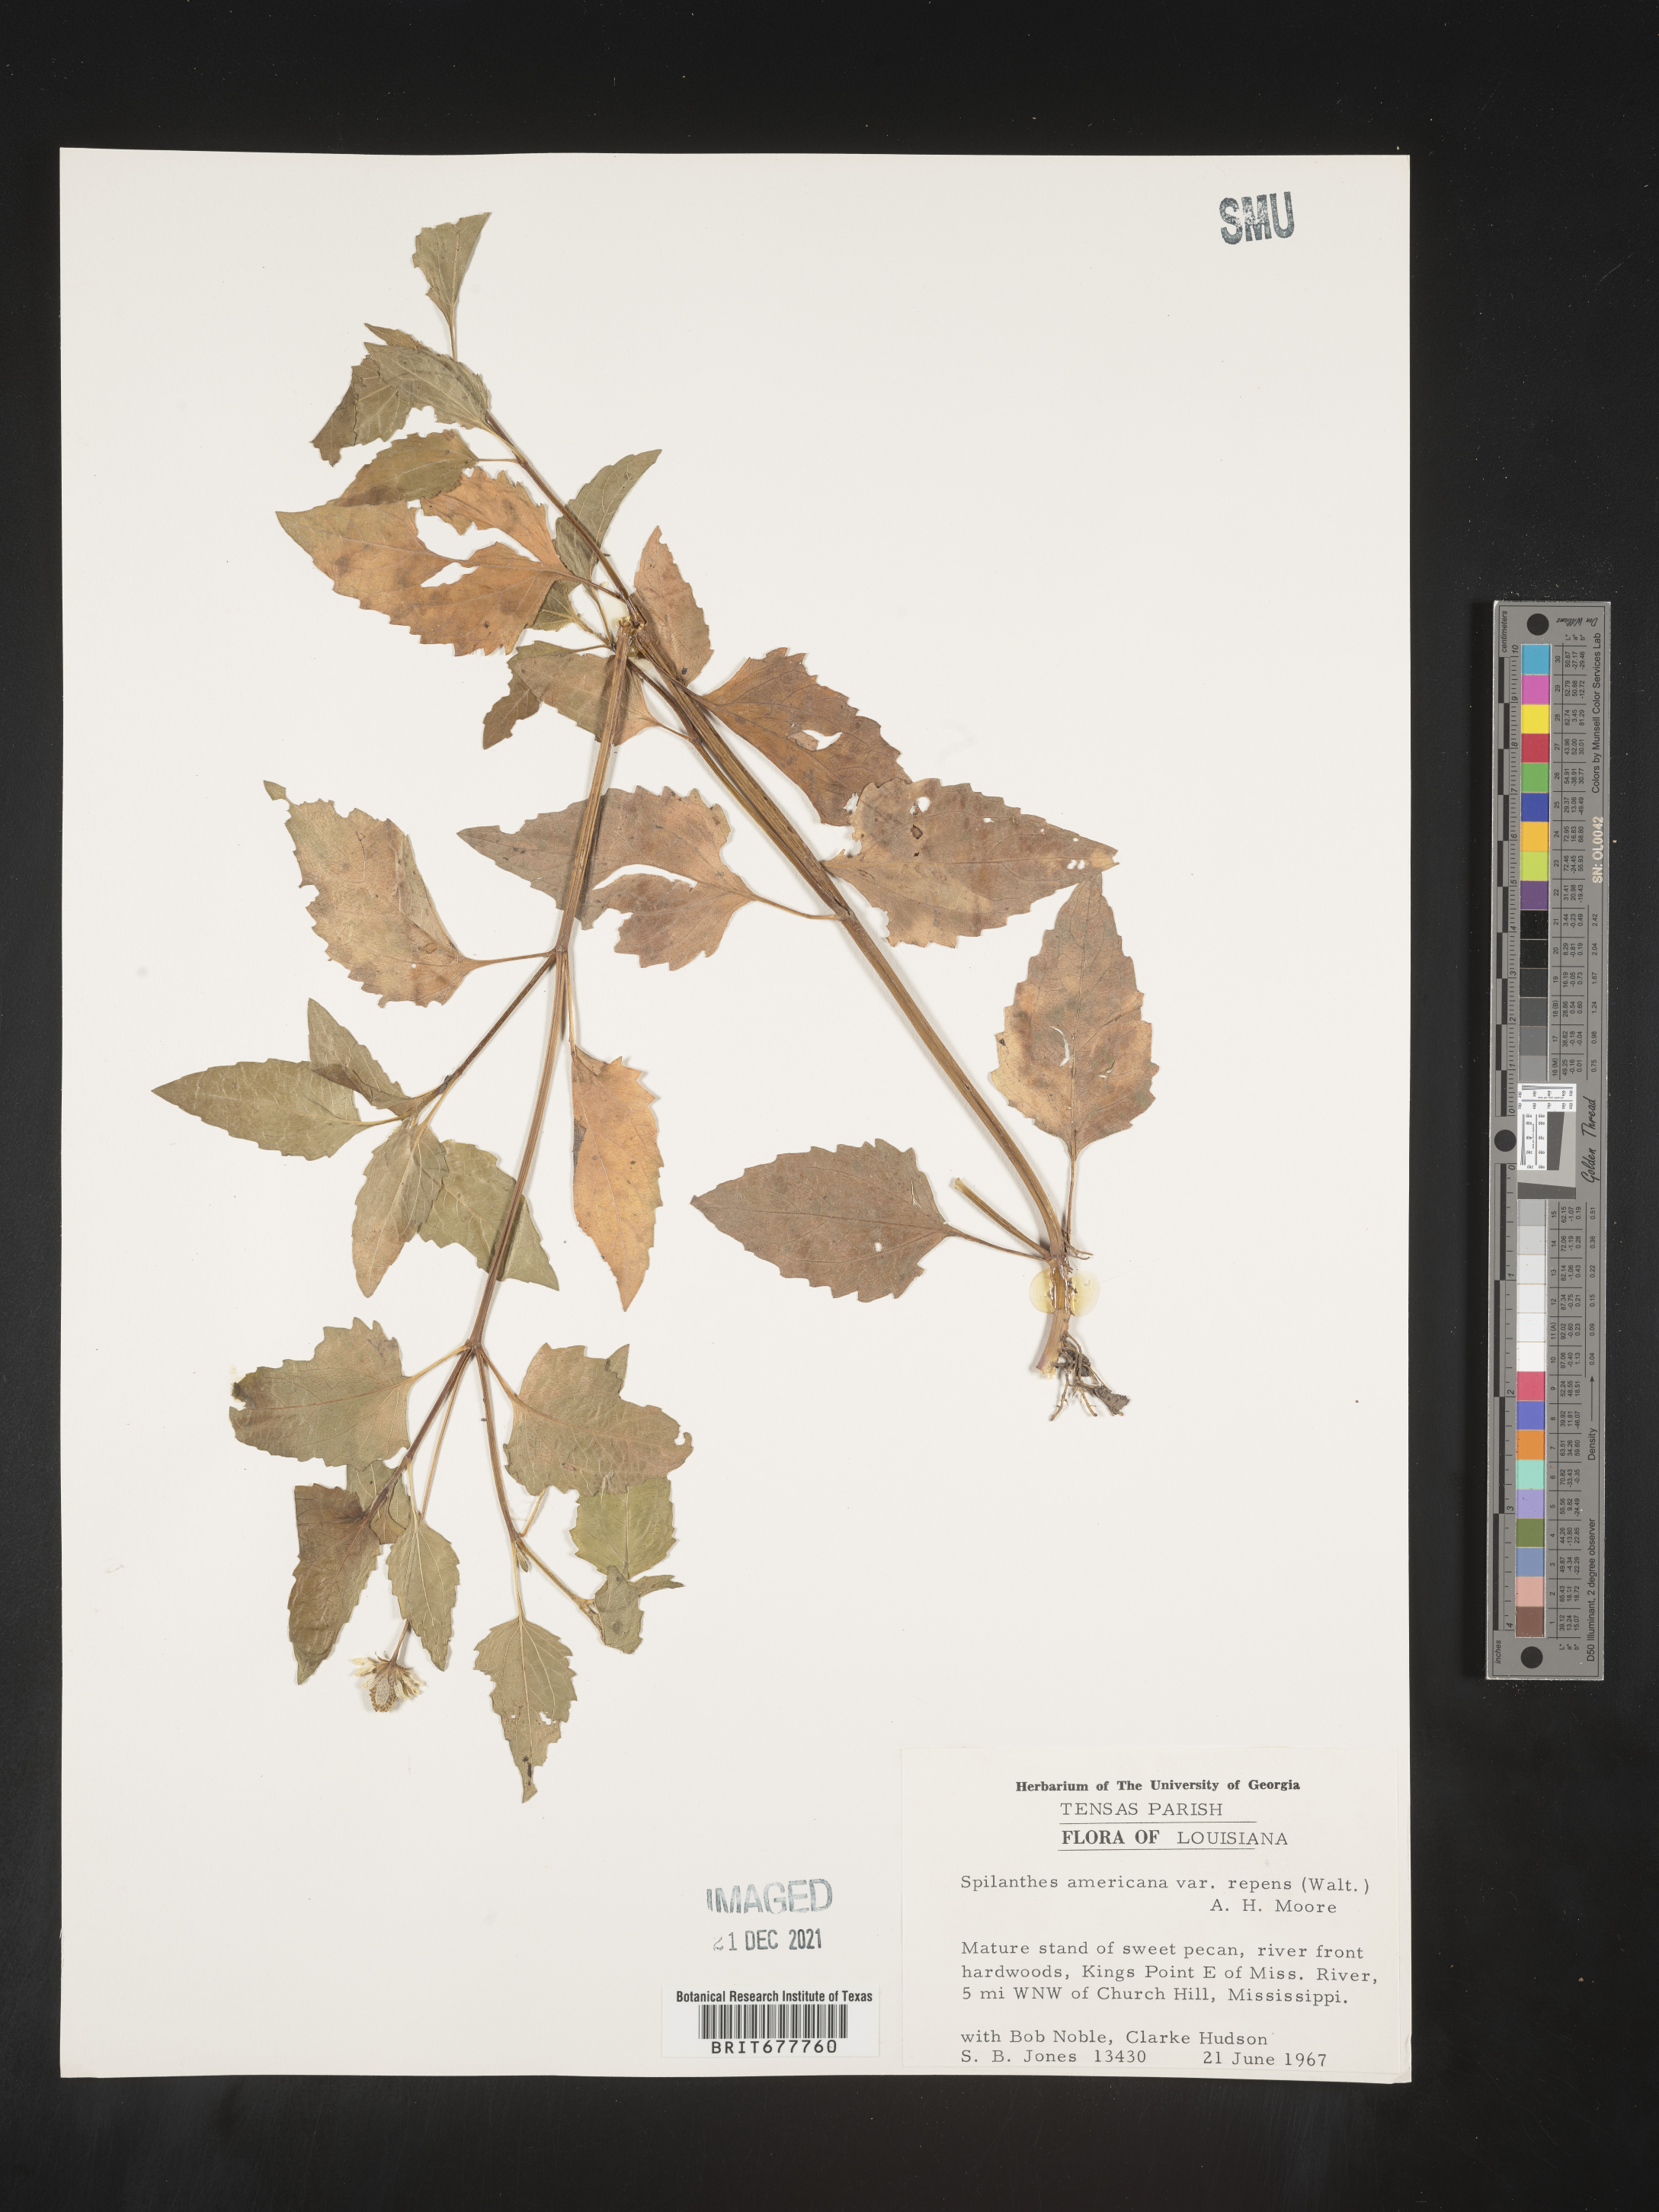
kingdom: Plantae
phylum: Tracheophyta
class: Magnoliopsida
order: Asterales
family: Asteraceae
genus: Spilanthes
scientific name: Spilanthes
